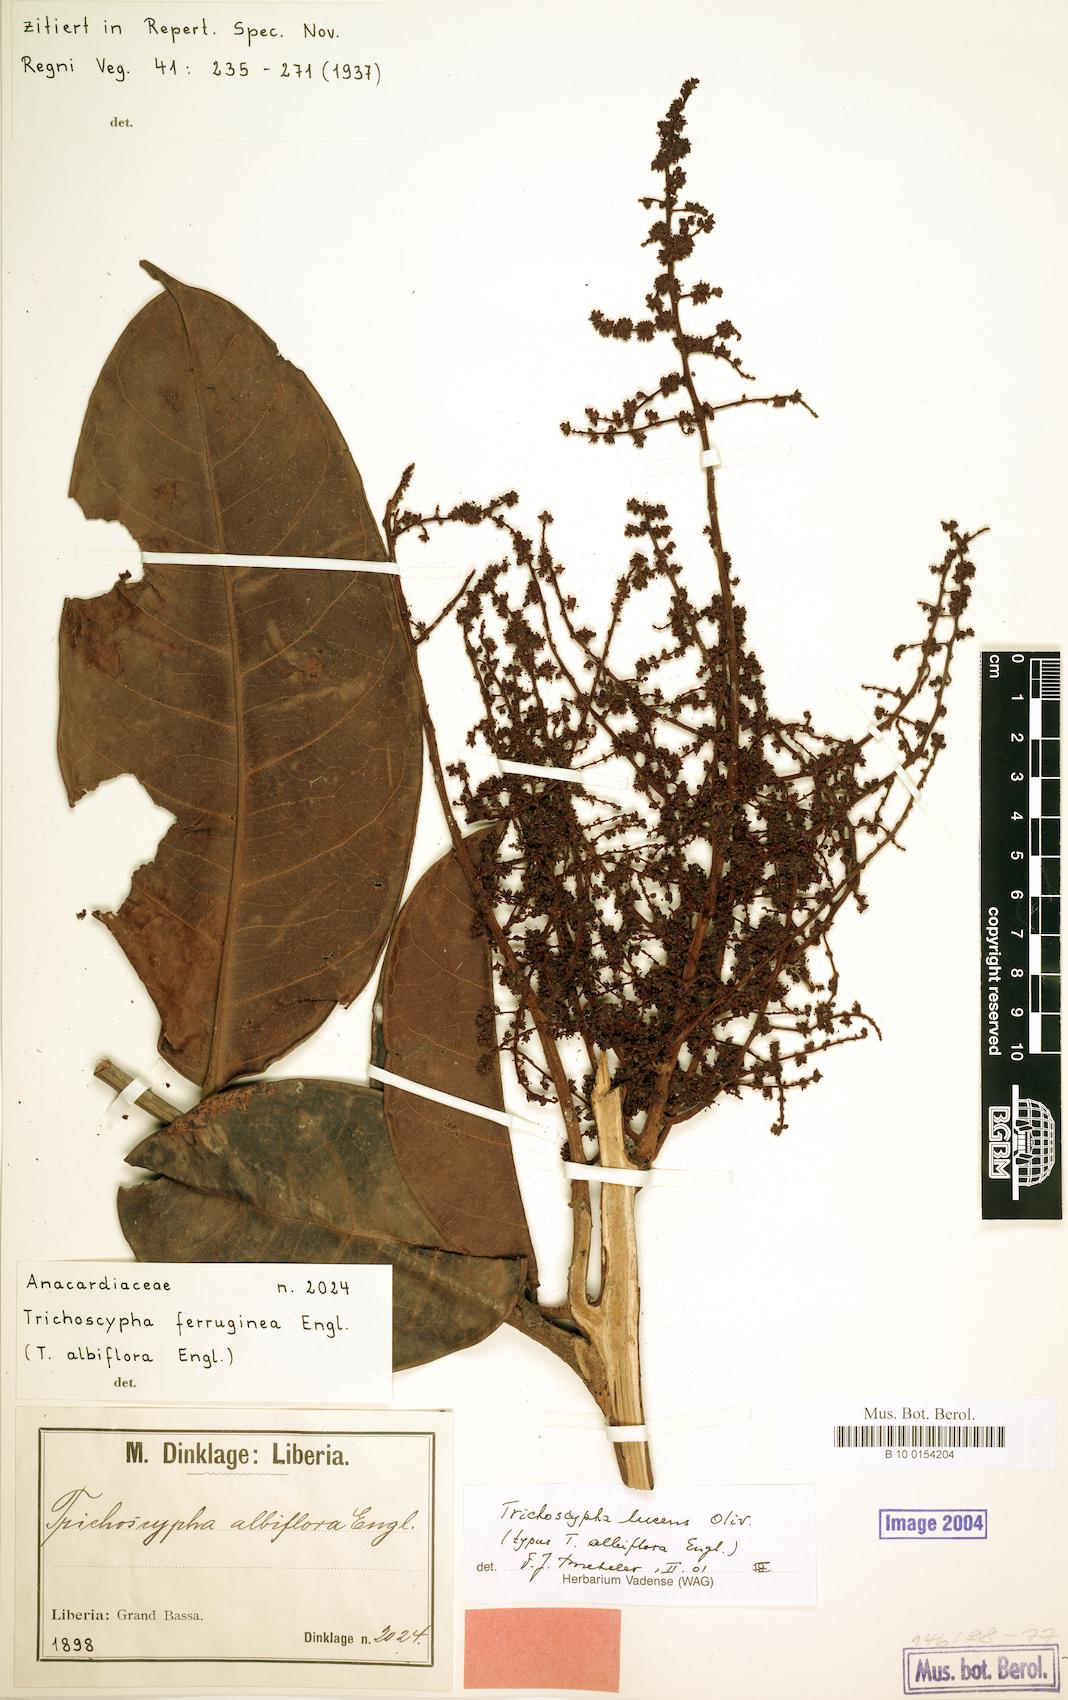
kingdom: Plantae
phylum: Tracheophyta
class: Magnoliopsida
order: Sapindales
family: Anacardiaceae
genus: Trichoscypha
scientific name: Trichoscypha lucens
